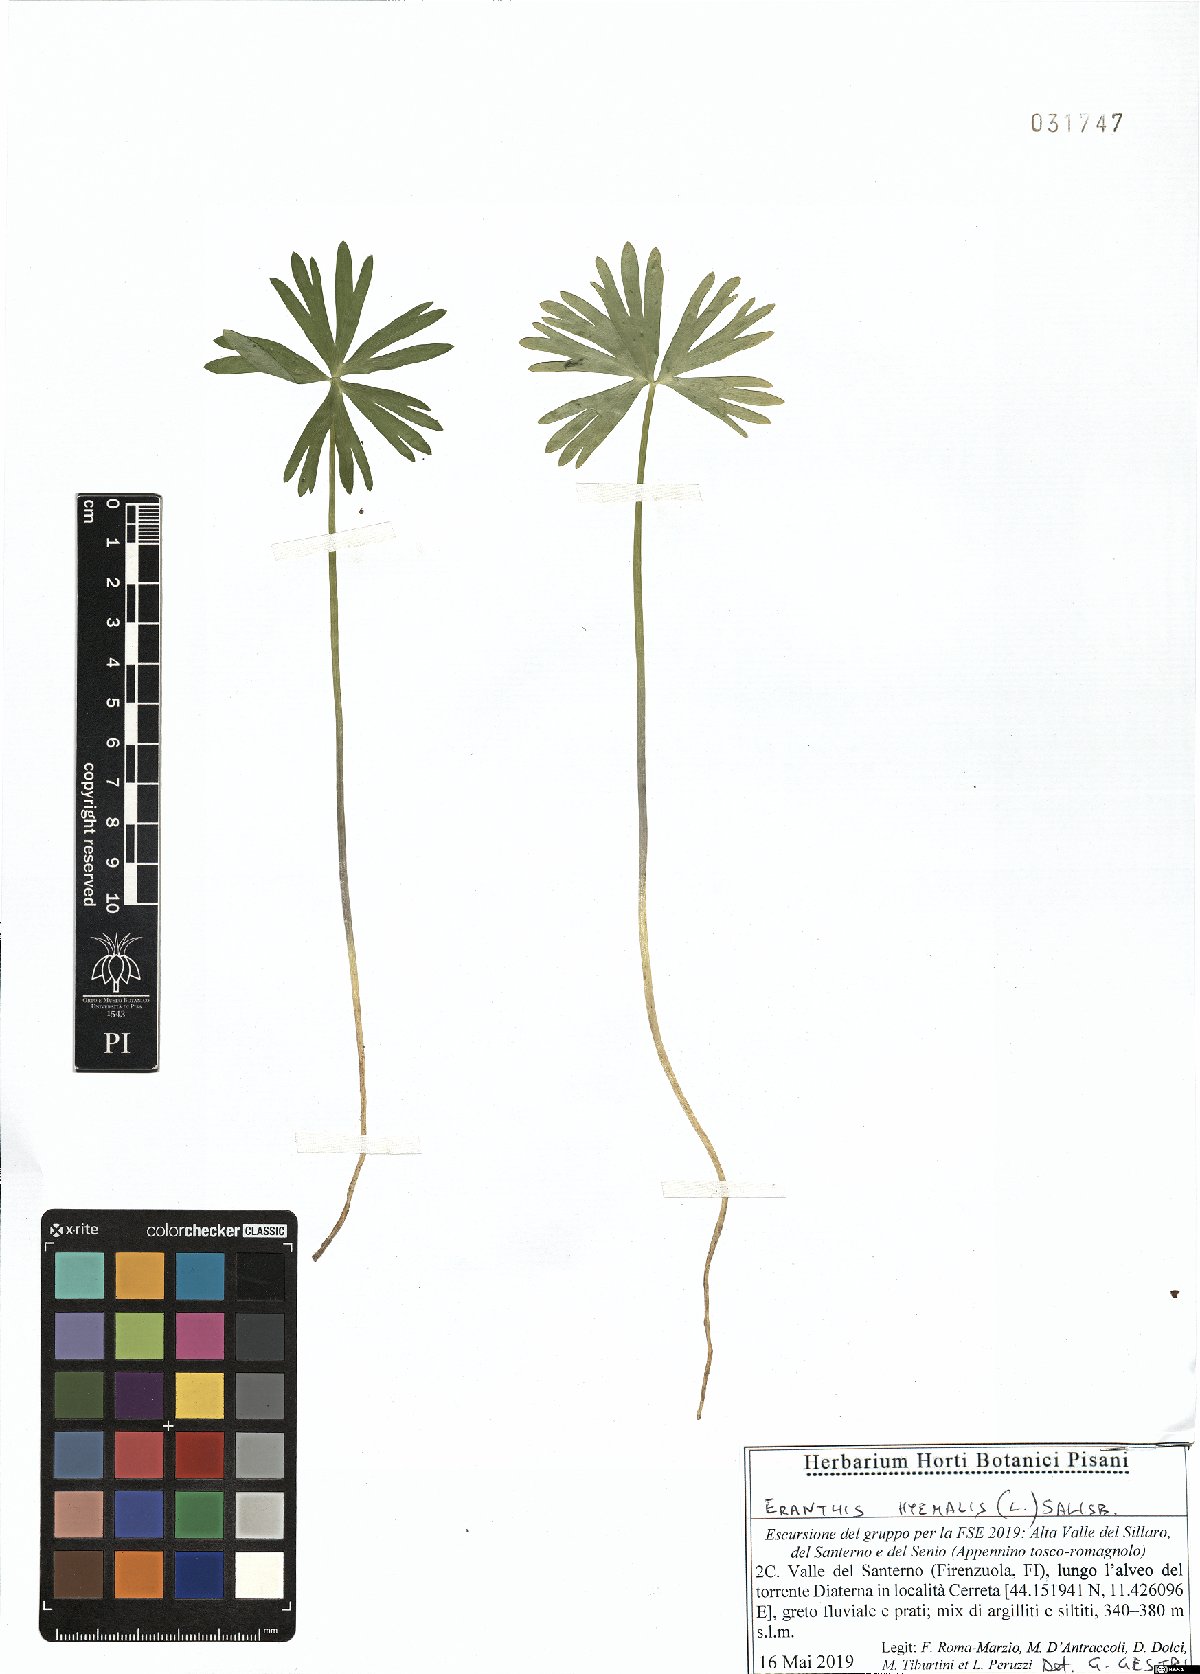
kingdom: Plantae
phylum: Tracheophyta
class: Magnoliopsida
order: Ranunculales
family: Ranunculaceae
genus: Eranthis
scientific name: Eranthis hyemalis
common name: Winter aconite
